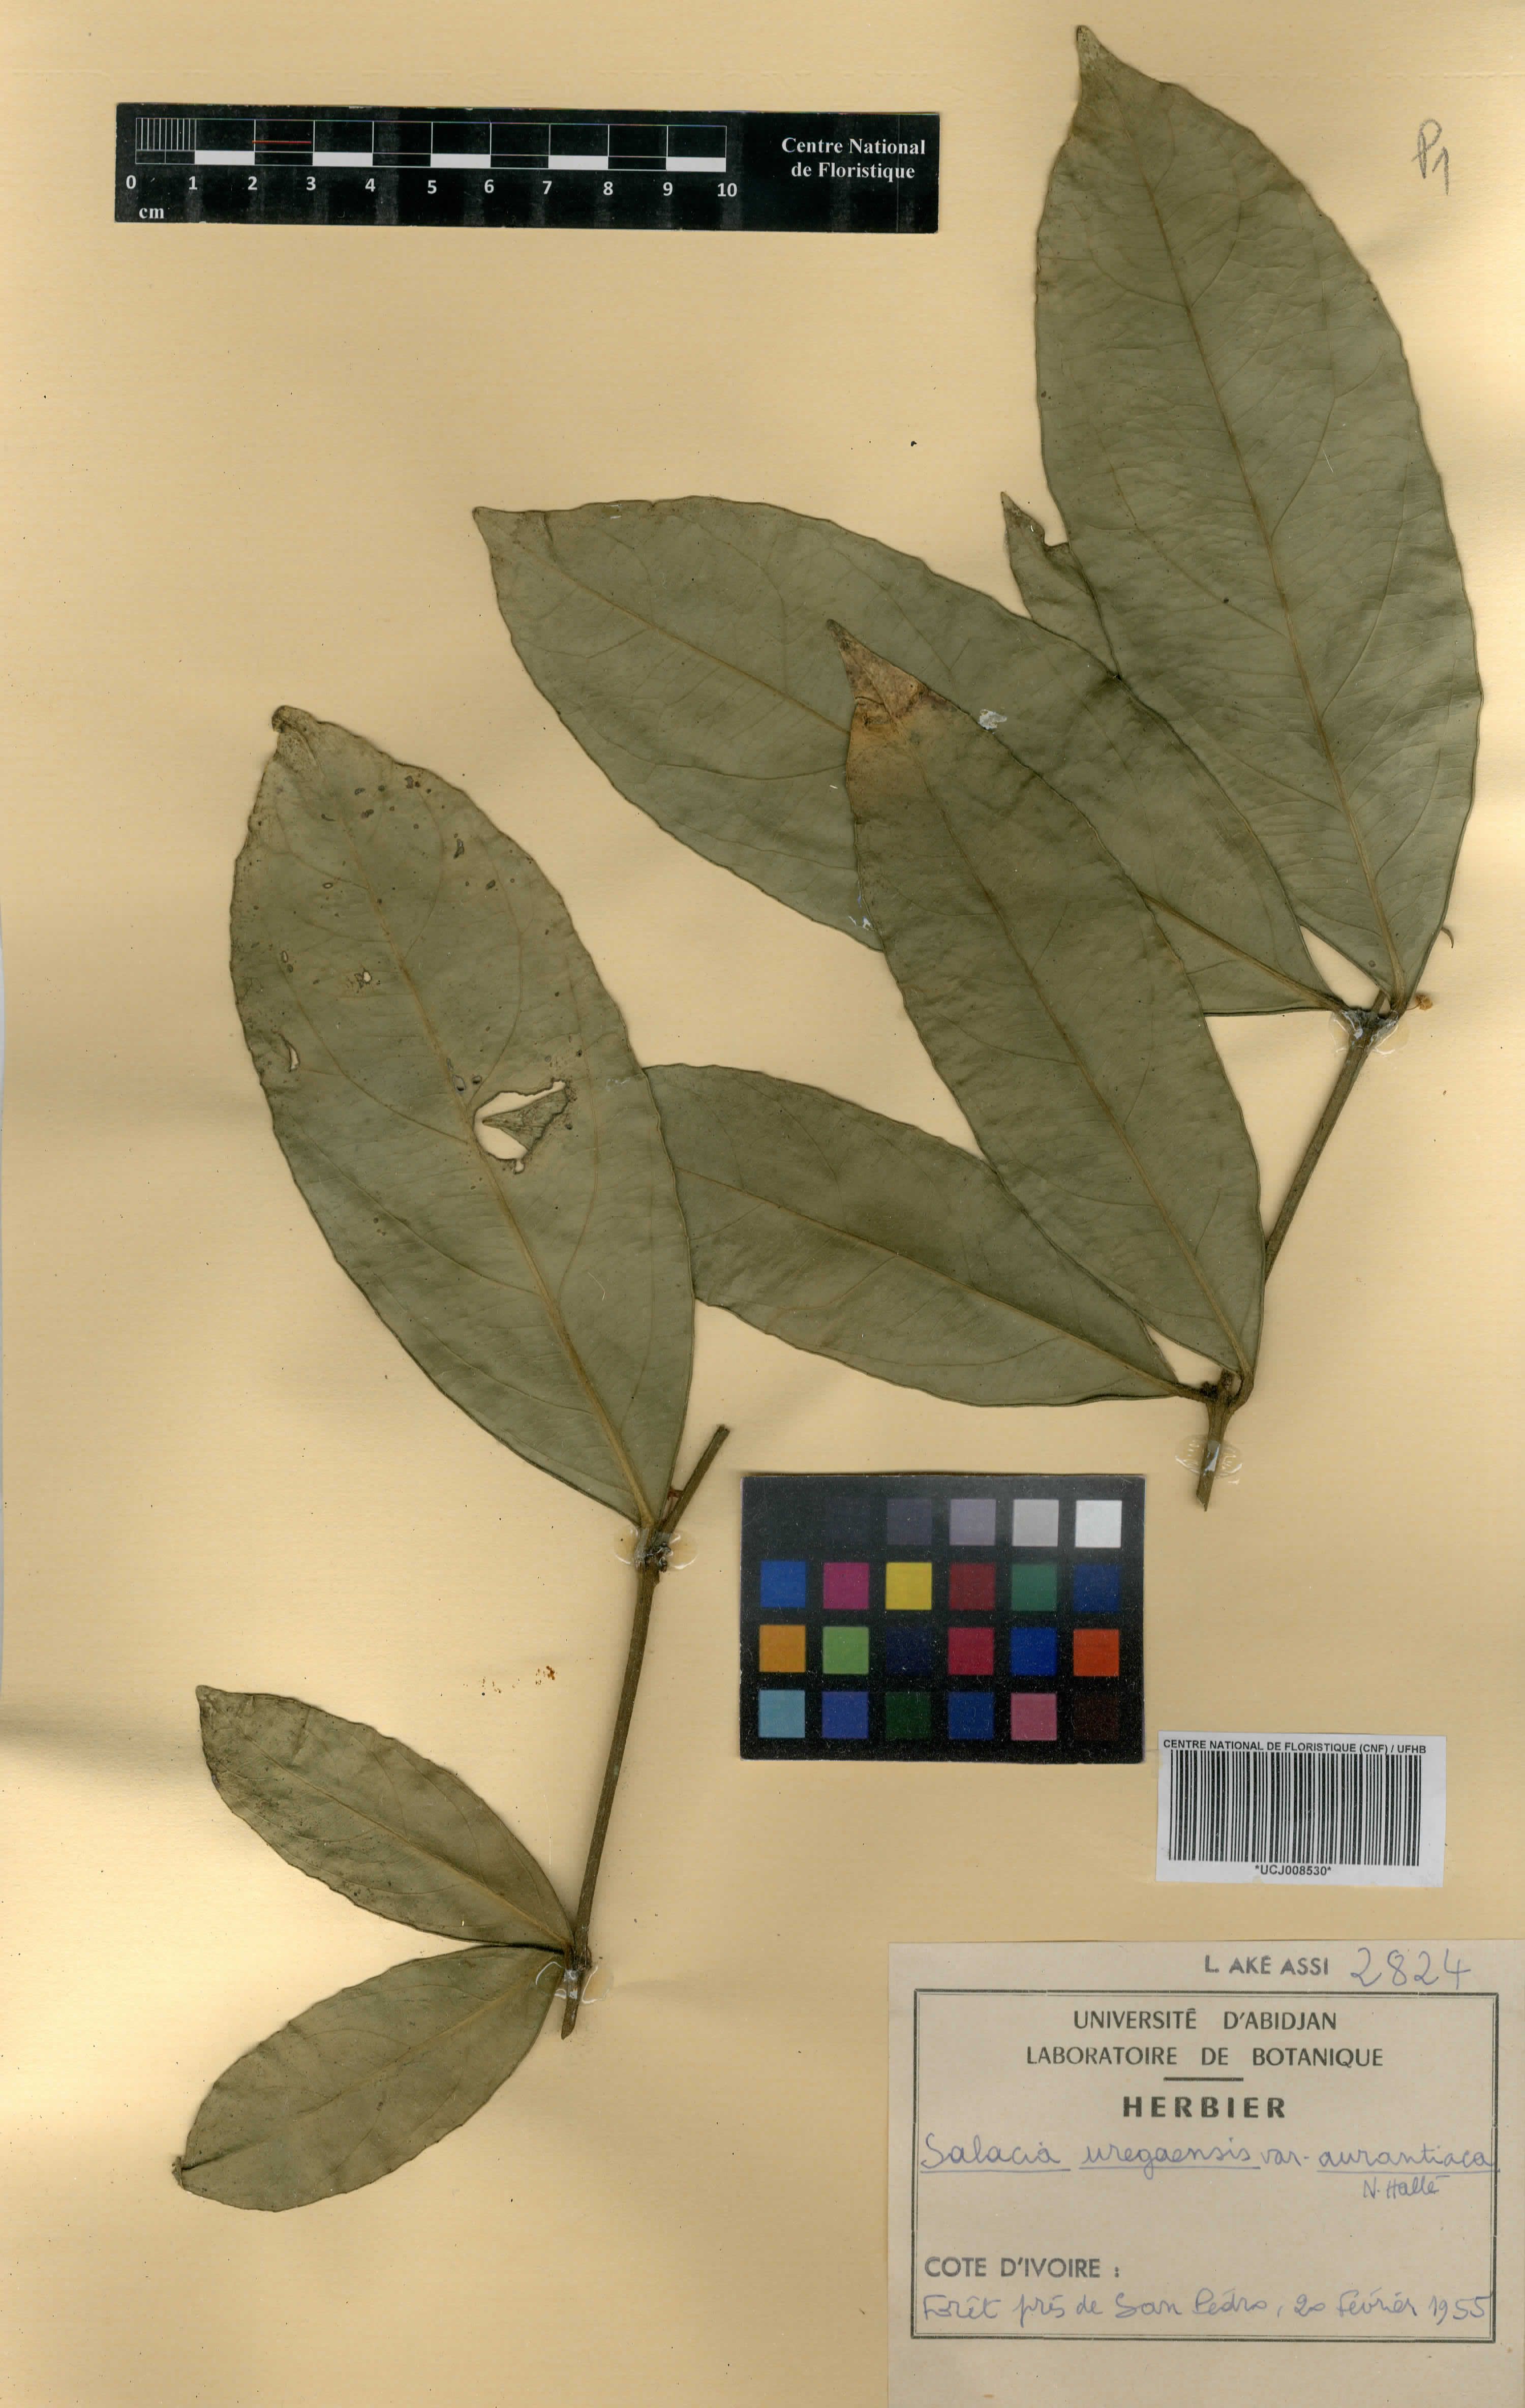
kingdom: Plantae
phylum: Tracheophyta
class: Magnoliopsida
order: Celastrales
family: Celastraceae
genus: Salacia
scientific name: Salacia lehmbachii
